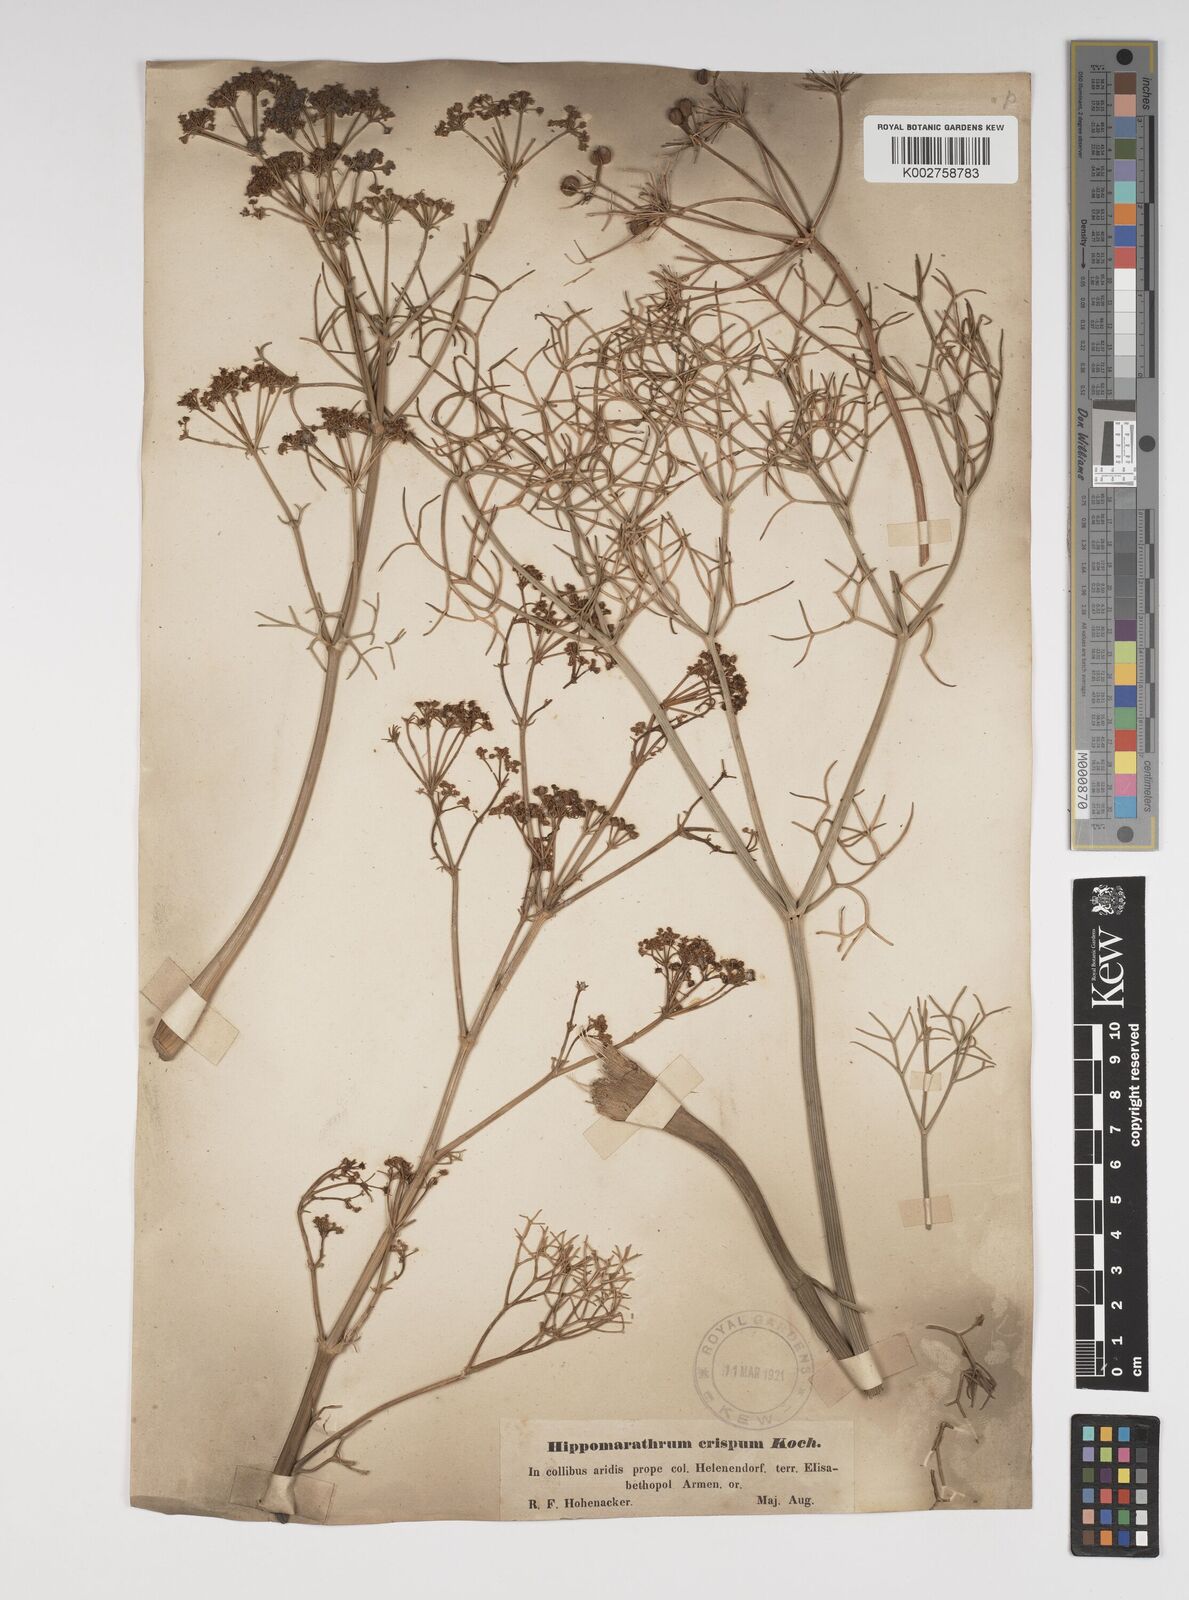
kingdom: Plantae
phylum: Tracheophyta
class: Magnoliopsida
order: Apiales
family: Apiaceae
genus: Bilacunaria
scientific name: Bilacunaria microcarpa
